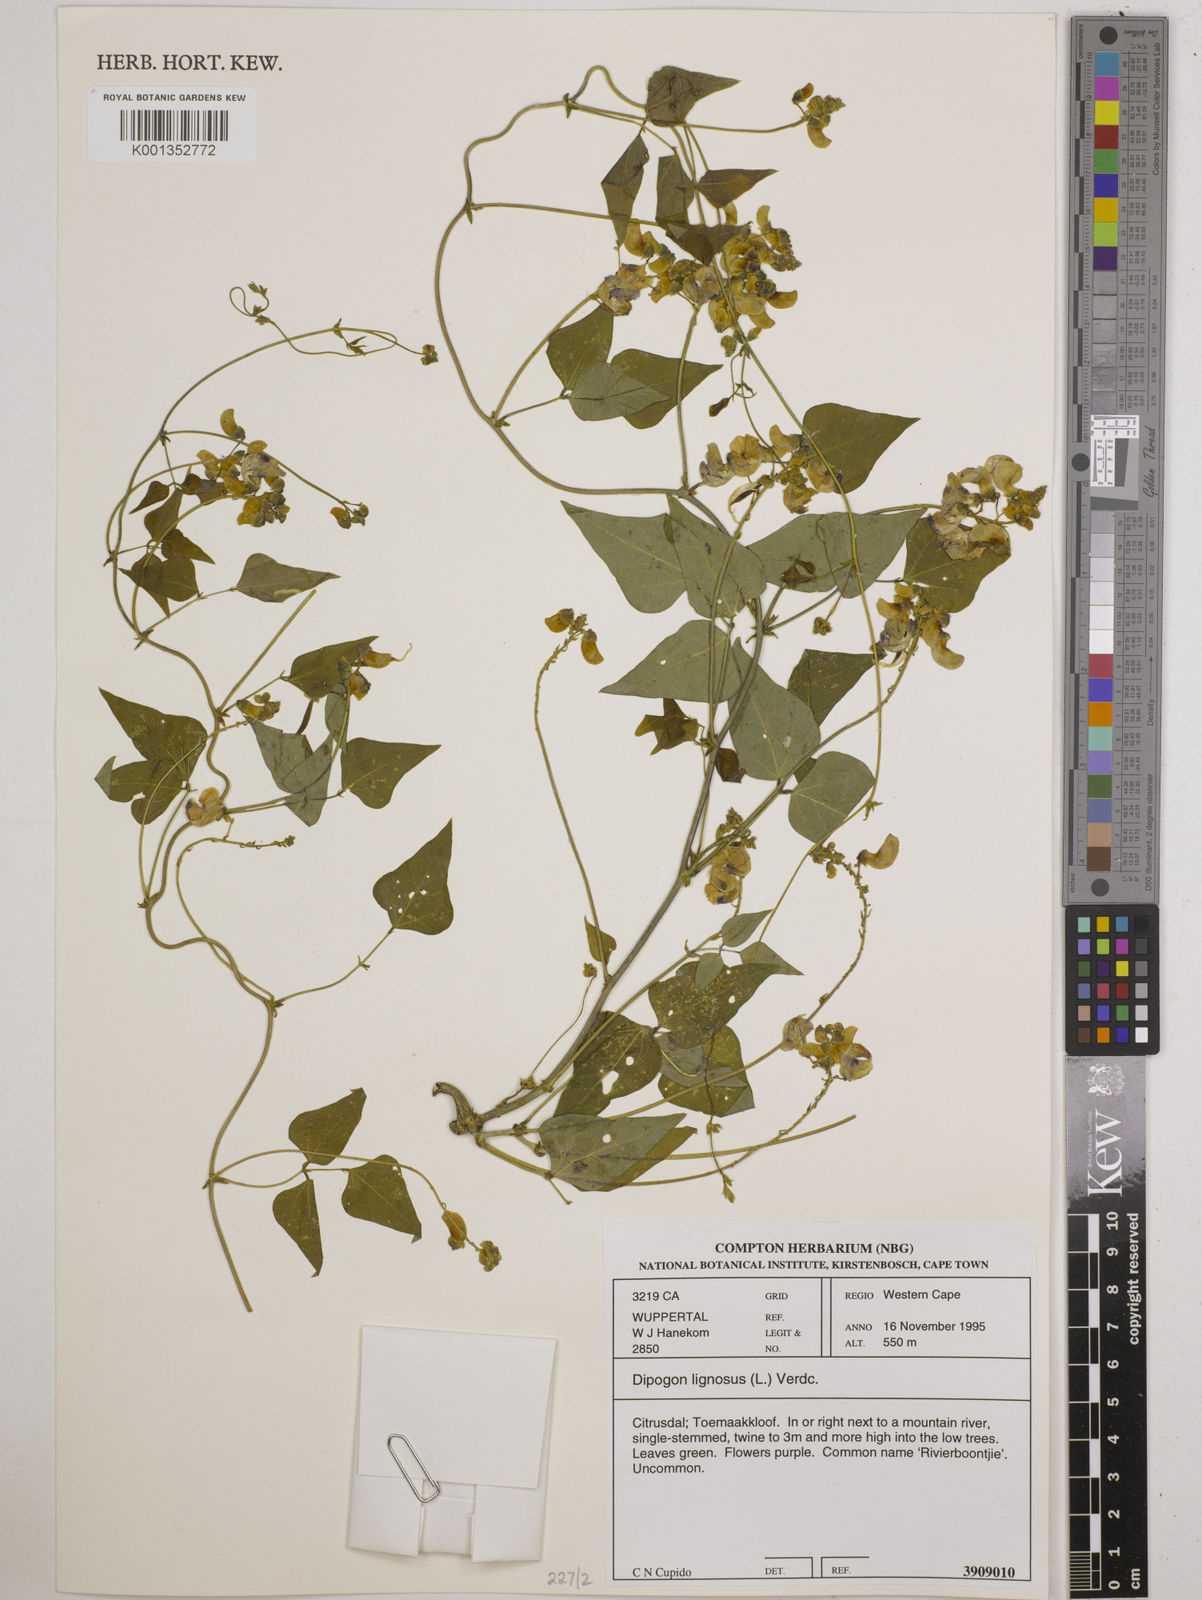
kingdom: Plantae
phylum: Tracheophyta
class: Magnoliopsida
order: Fabales
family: Fabaceae
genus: Dipogon
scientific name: Dipogon lignosus
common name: Okie bean
